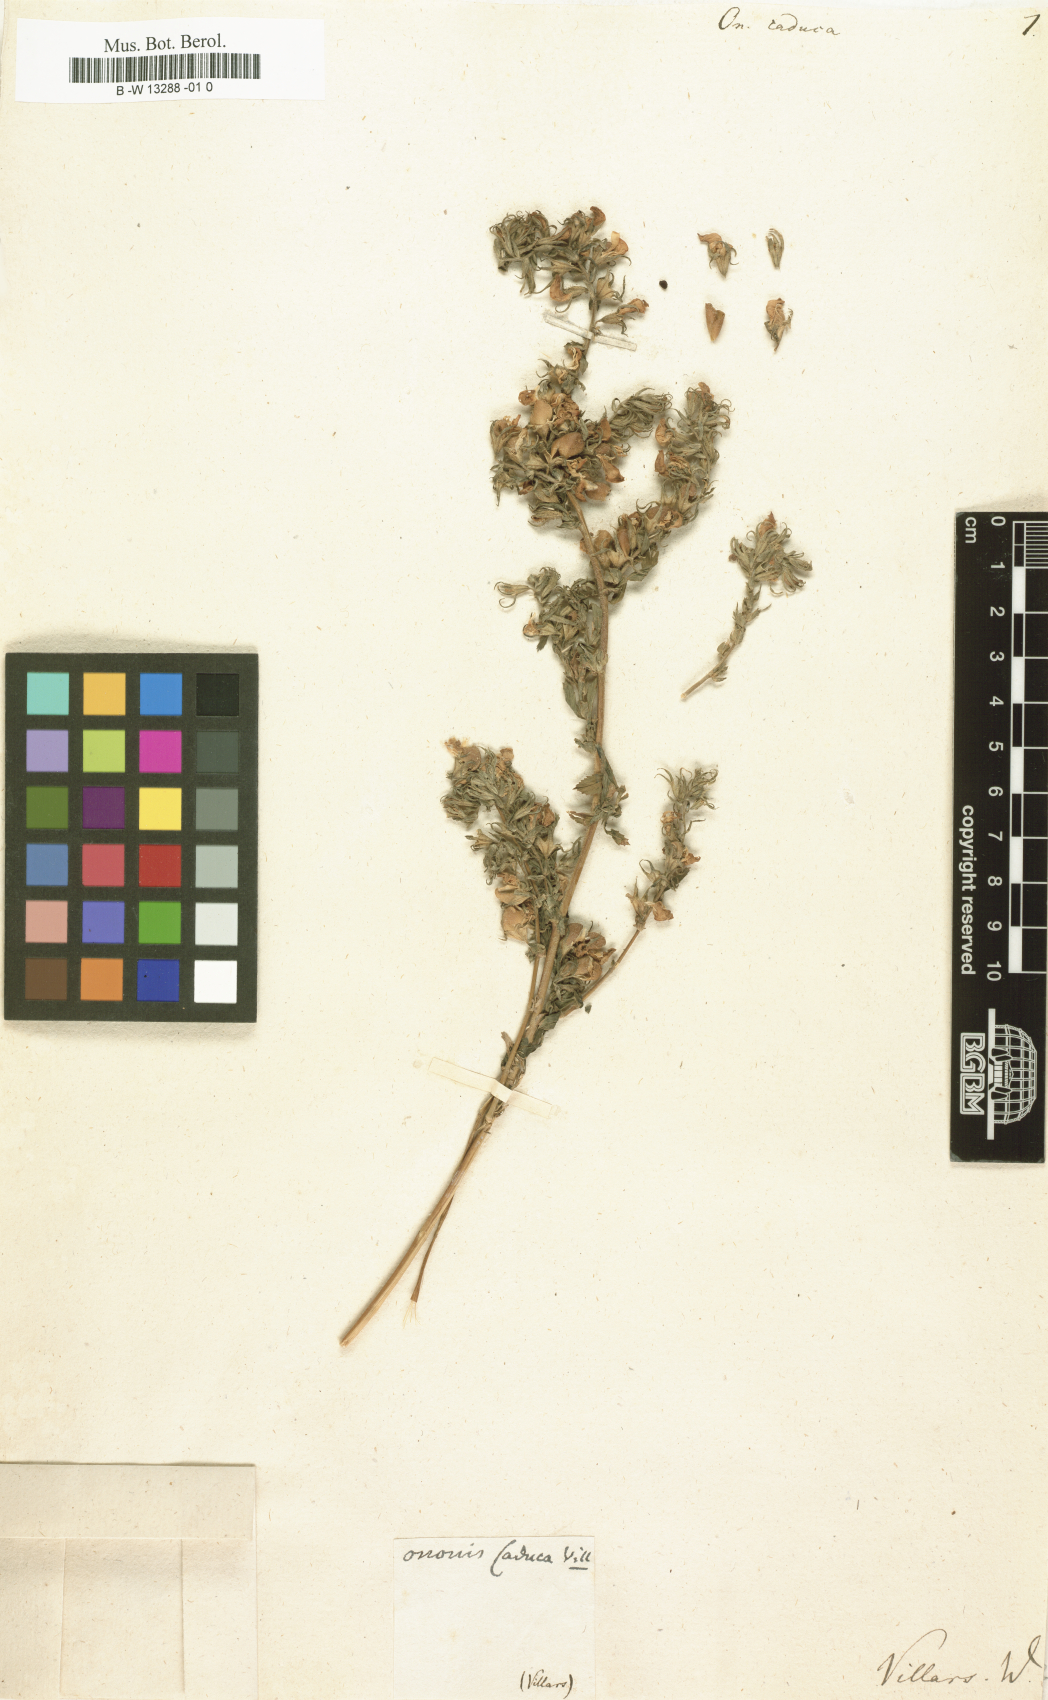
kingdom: Plantae
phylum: Tracheophyta
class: Magnoliopsida
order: Fabales
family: Fabaceae
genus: Ononis
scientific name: Ononis spinosa
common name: Spiny restharrow
